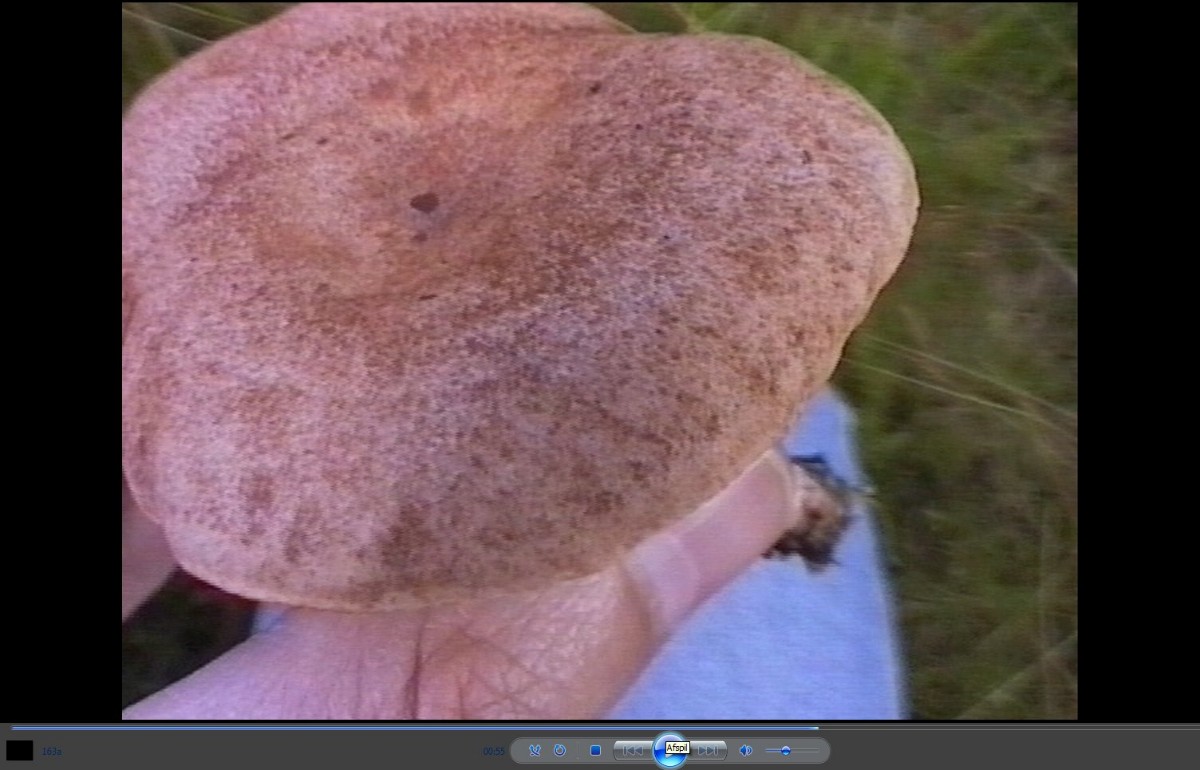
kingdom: Fungi
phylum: Basidiomycota
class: Agaricomycetes
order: Russulales
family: Russulaceae
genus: Lactarius
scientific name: Lactarius quietus
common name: ege-mælkehat
